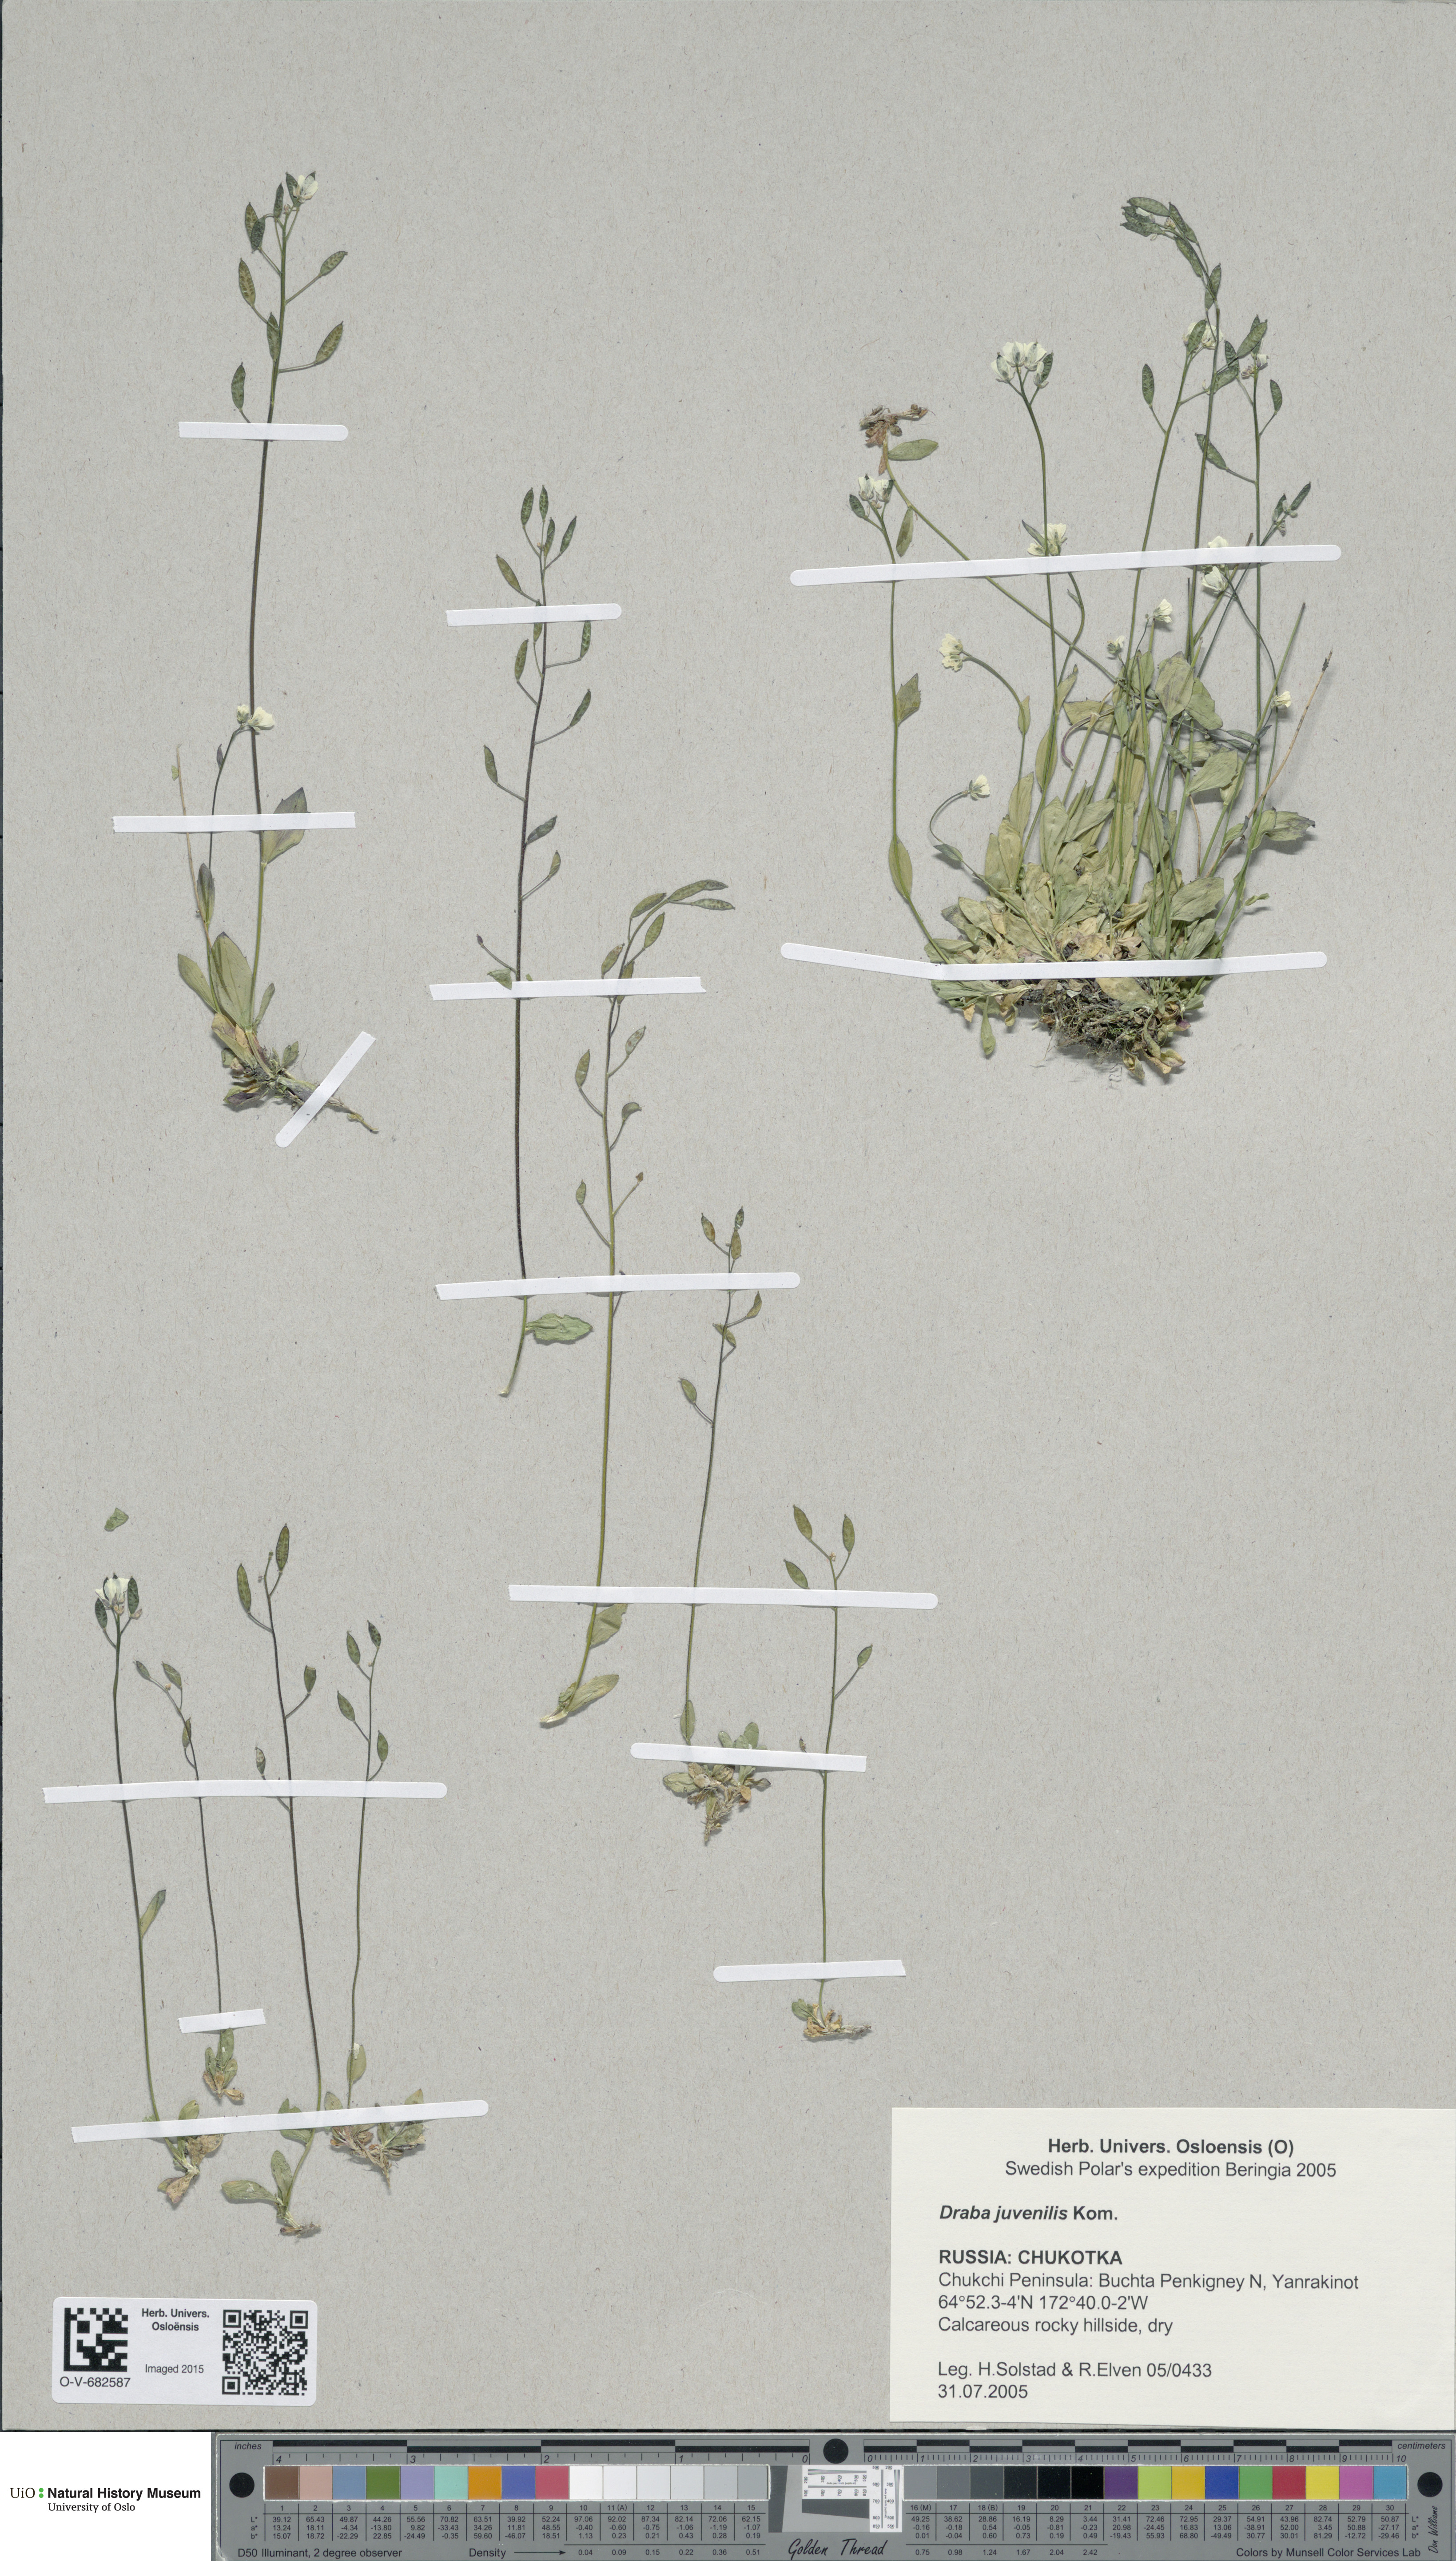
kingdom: Plantae
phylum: Tracheophyta
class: Magnoliopsida
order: Brassicales
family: Brassicaceae
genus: Draba
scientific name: Draba juvenilis
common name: Long-stalked draba
